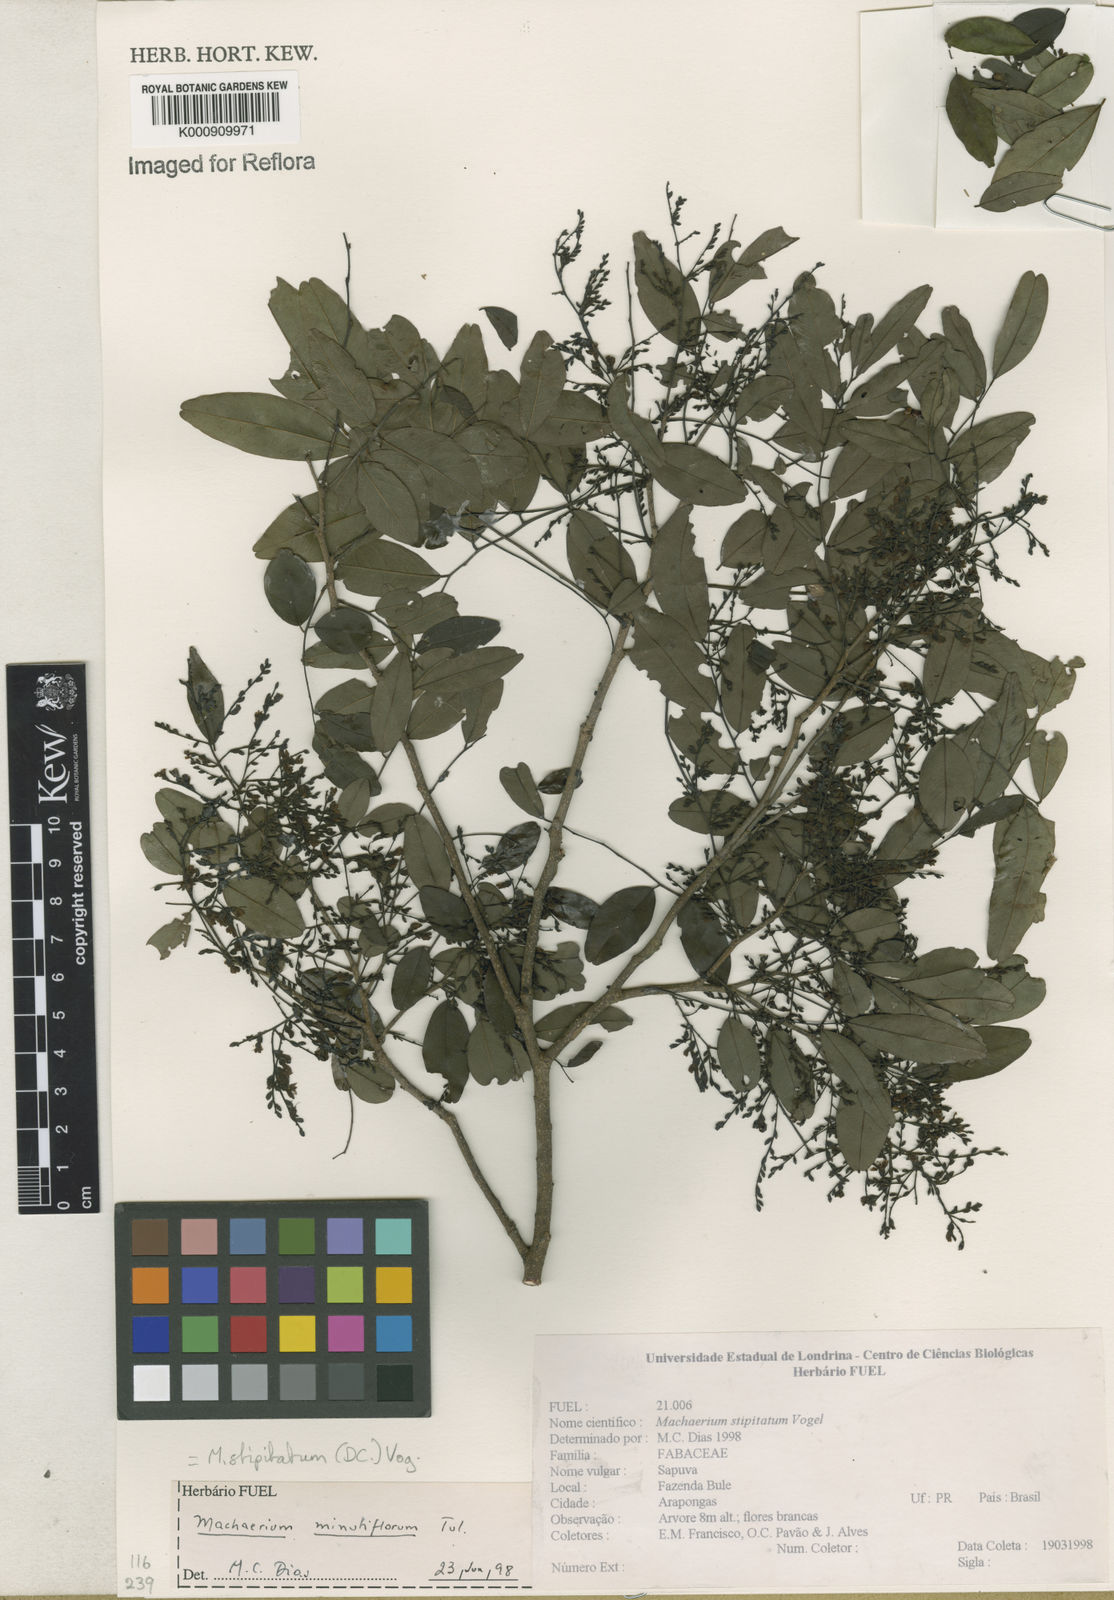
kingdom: Plantae
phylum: Tracheophyta
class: Magnoliopsida
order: Fabales
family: Fabaceae
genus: Machaerium
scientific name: Machaerium stipitatum
